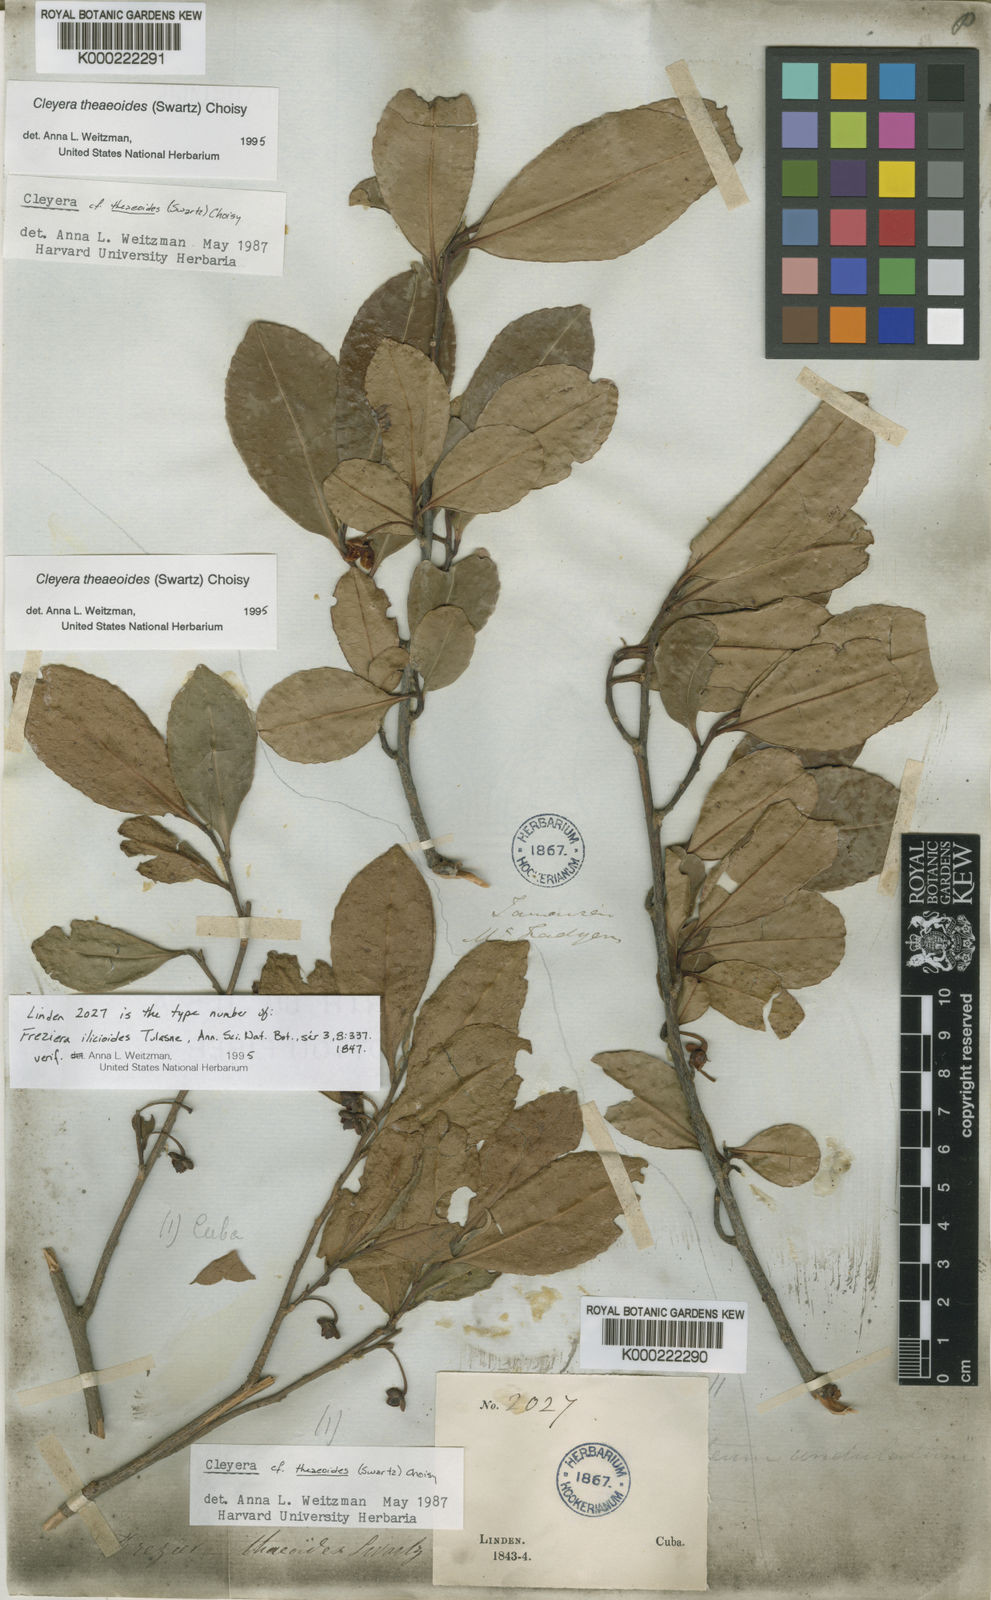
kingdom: Plantae
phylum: Tracheophyta
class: Magnoliopsida
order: Ericales
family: Pentaphylacaceae
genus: Cleyera
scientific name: Cleyera nimanimae
